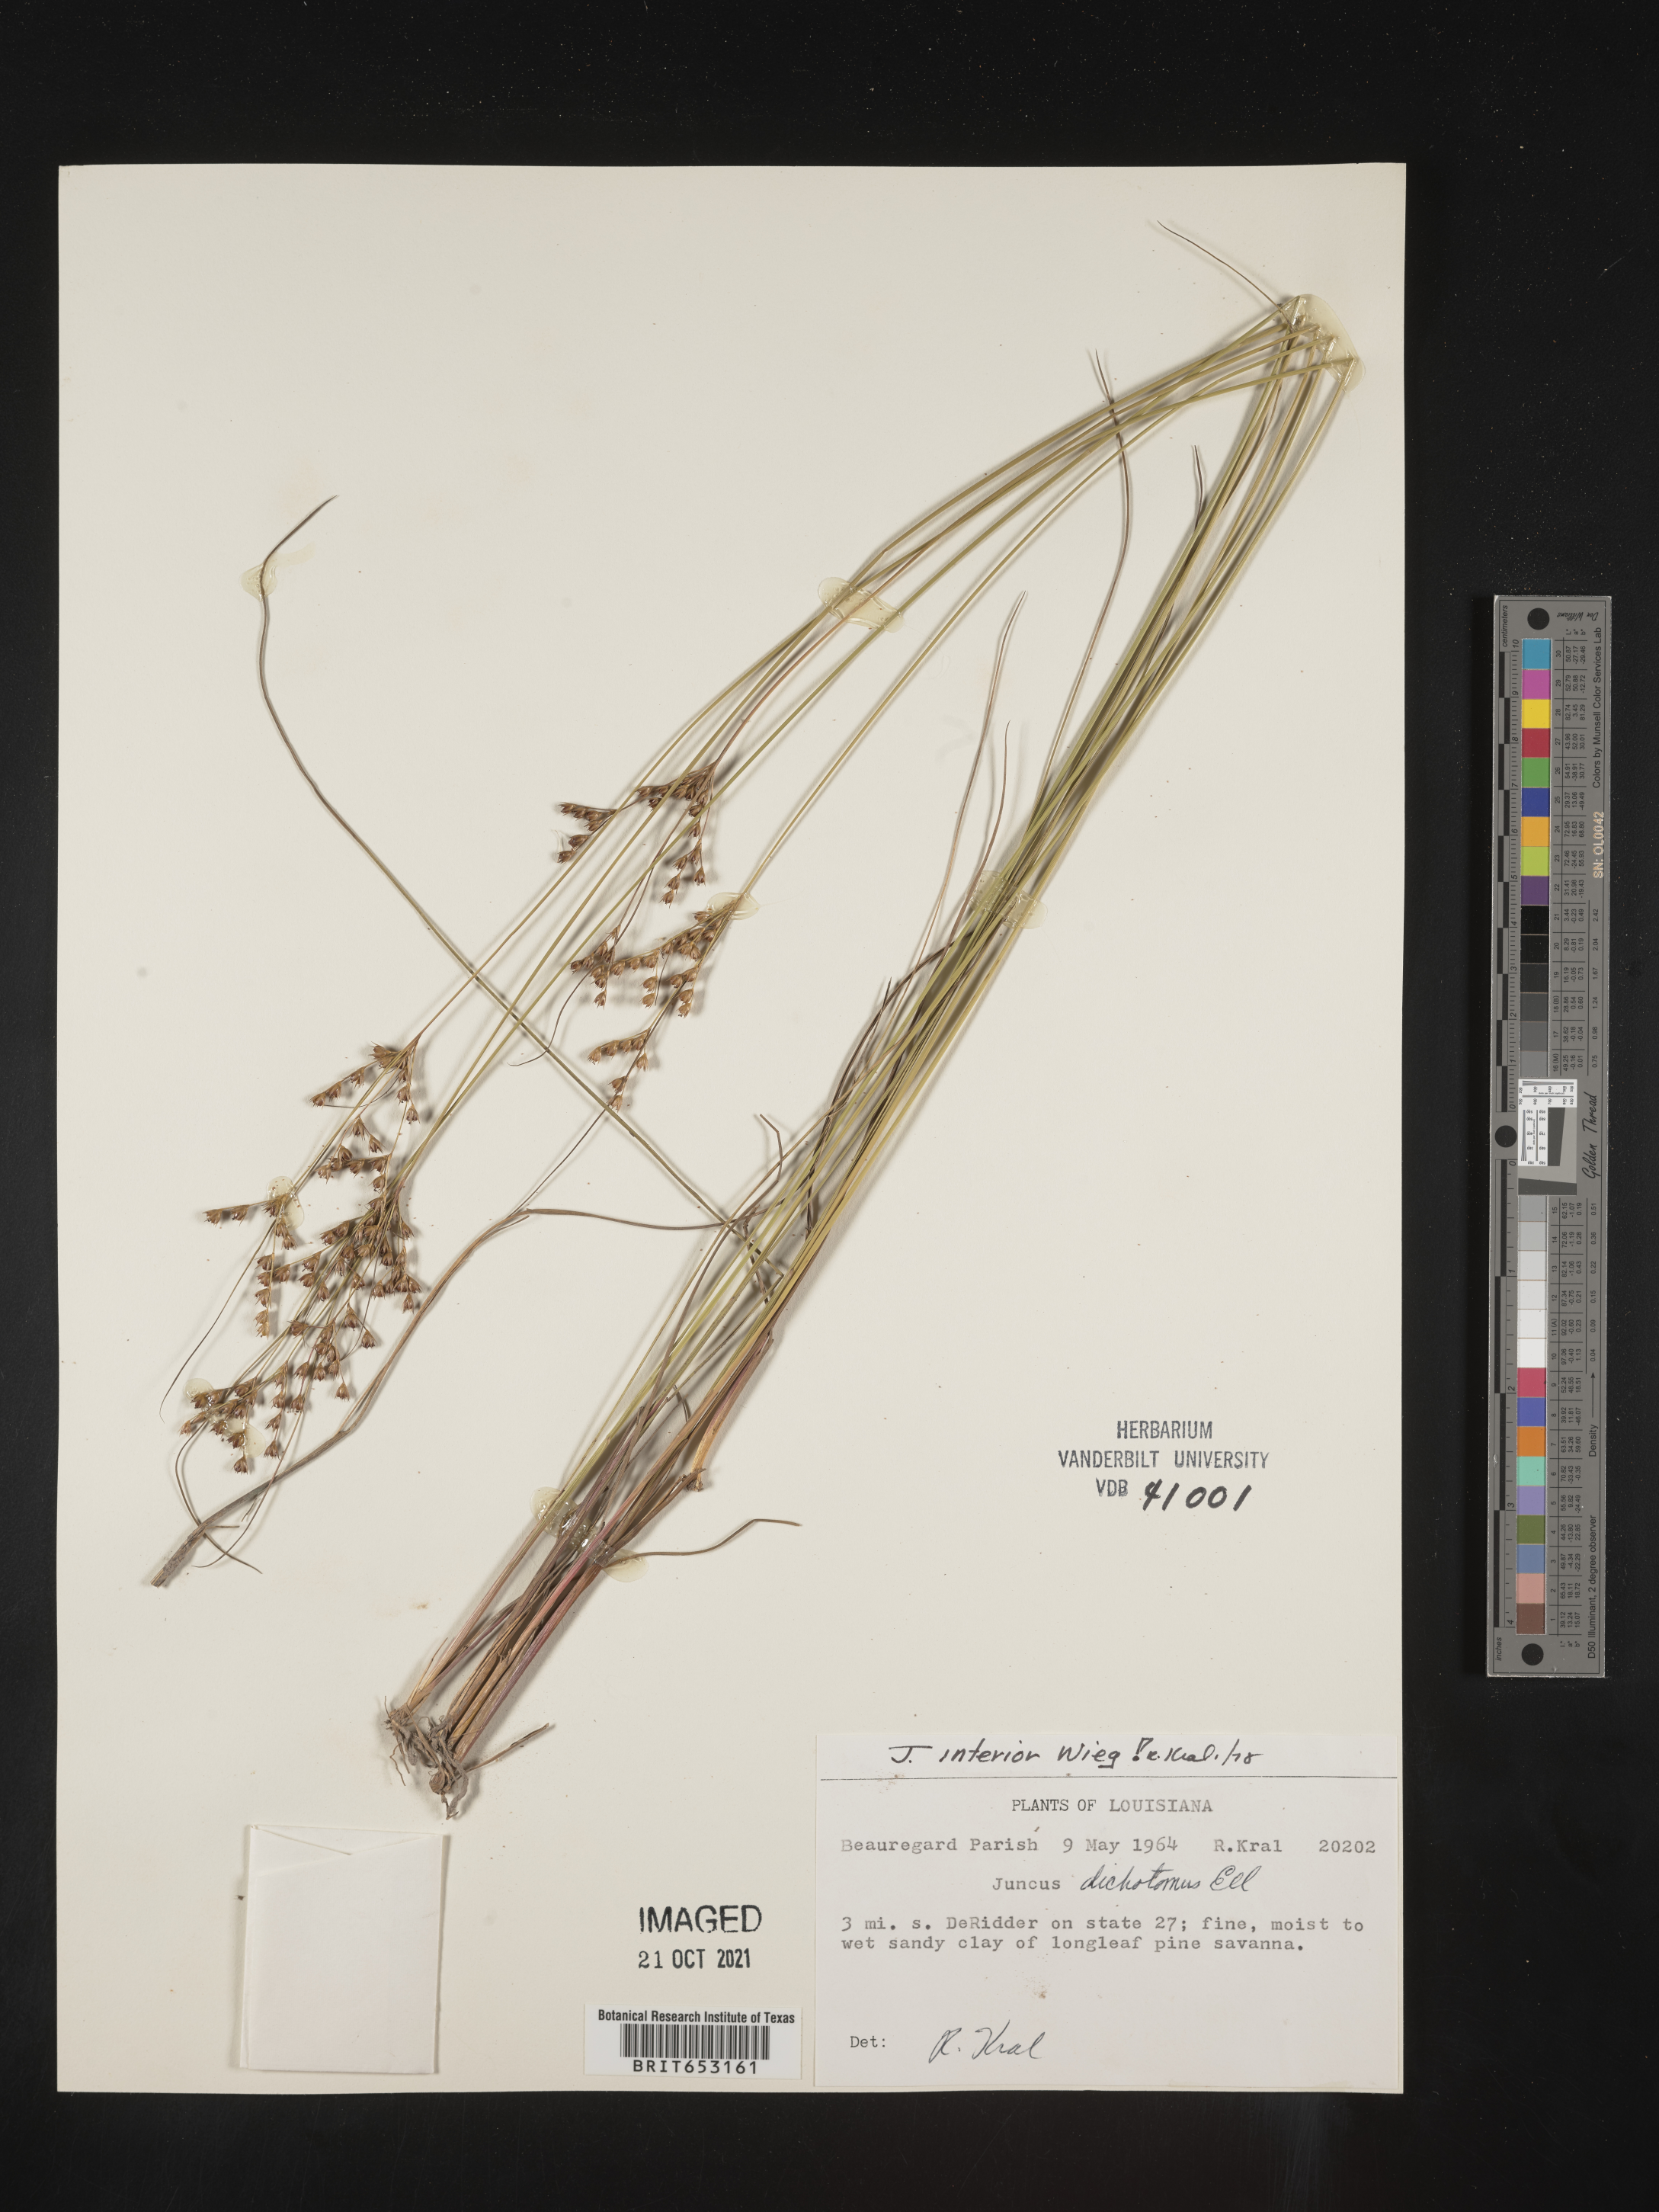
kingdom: Plantae
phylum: Tracheophyta
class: Liliopsida
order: Poales
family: Juncaceae
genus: Juncus
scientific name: Juncus interior
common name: Interior rush
